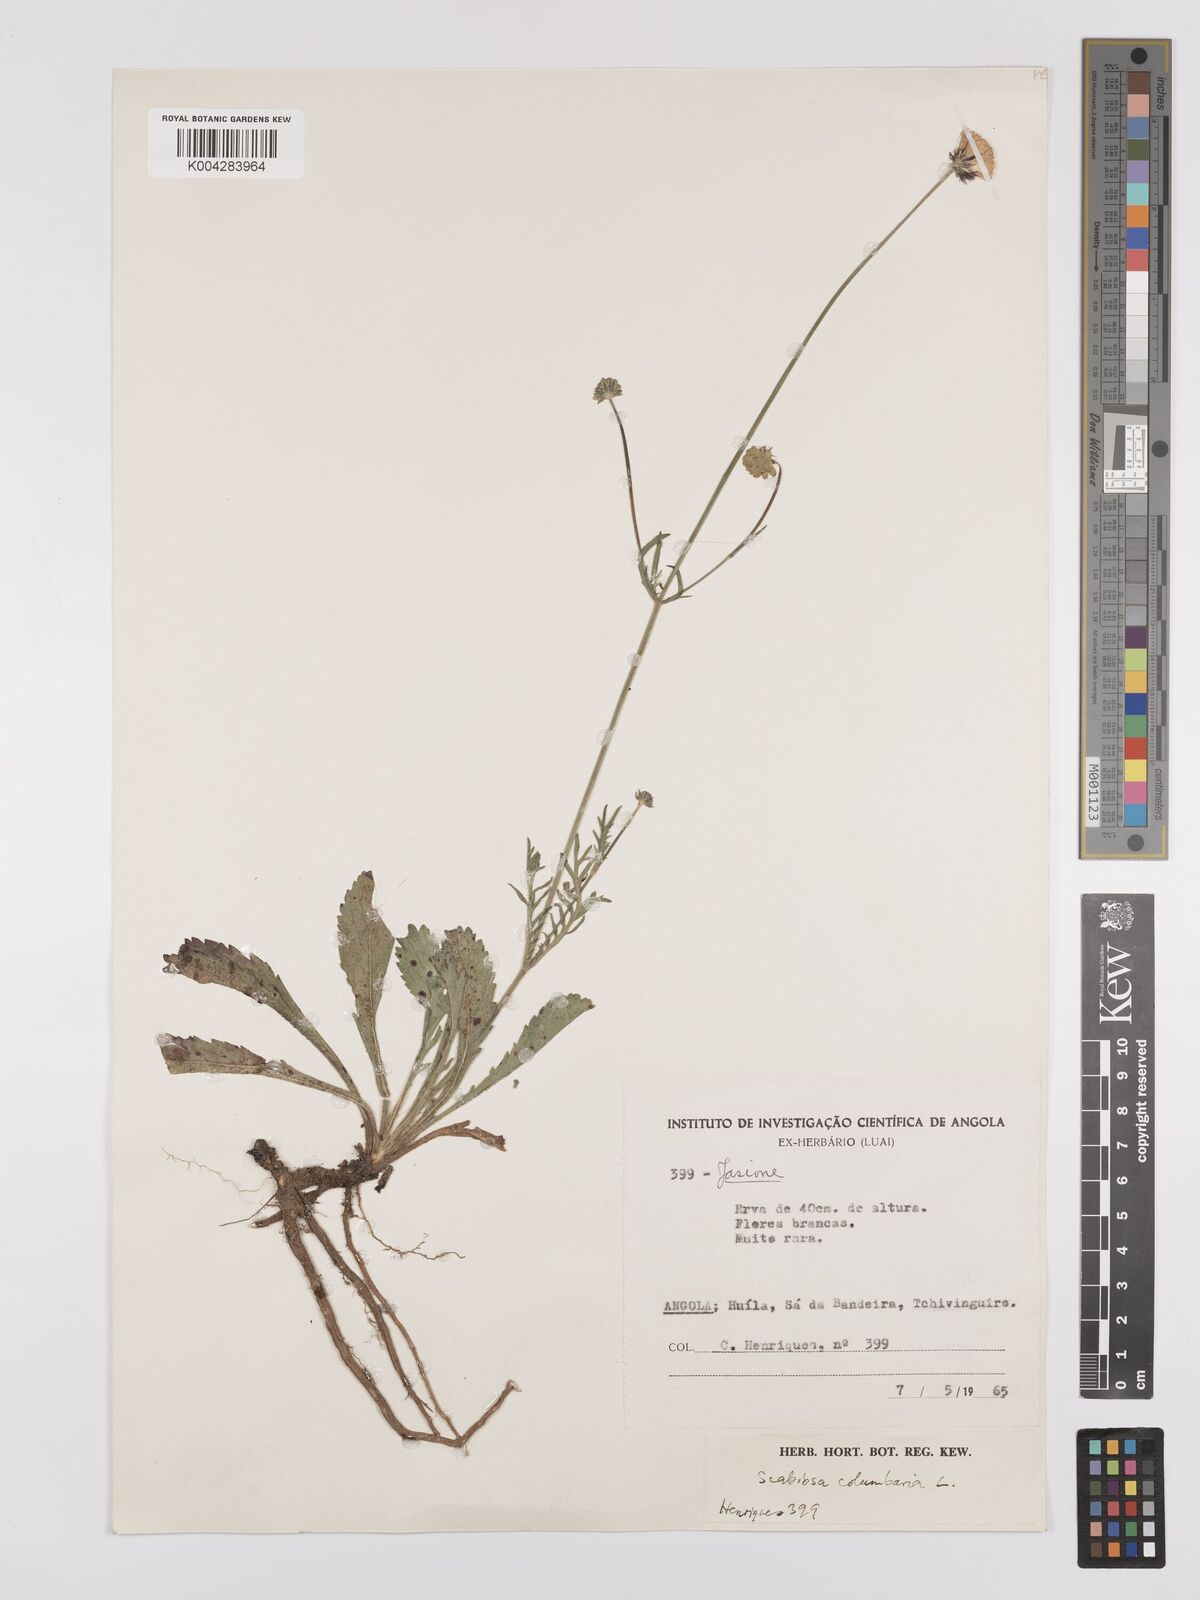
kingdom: Plantae
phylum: Tracheophyta
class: Magnoliopsida
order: Dipsacales
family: Caprifoliaceae
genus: Scabiosa
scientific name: Scabiosa columbaria
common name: Small scabious
